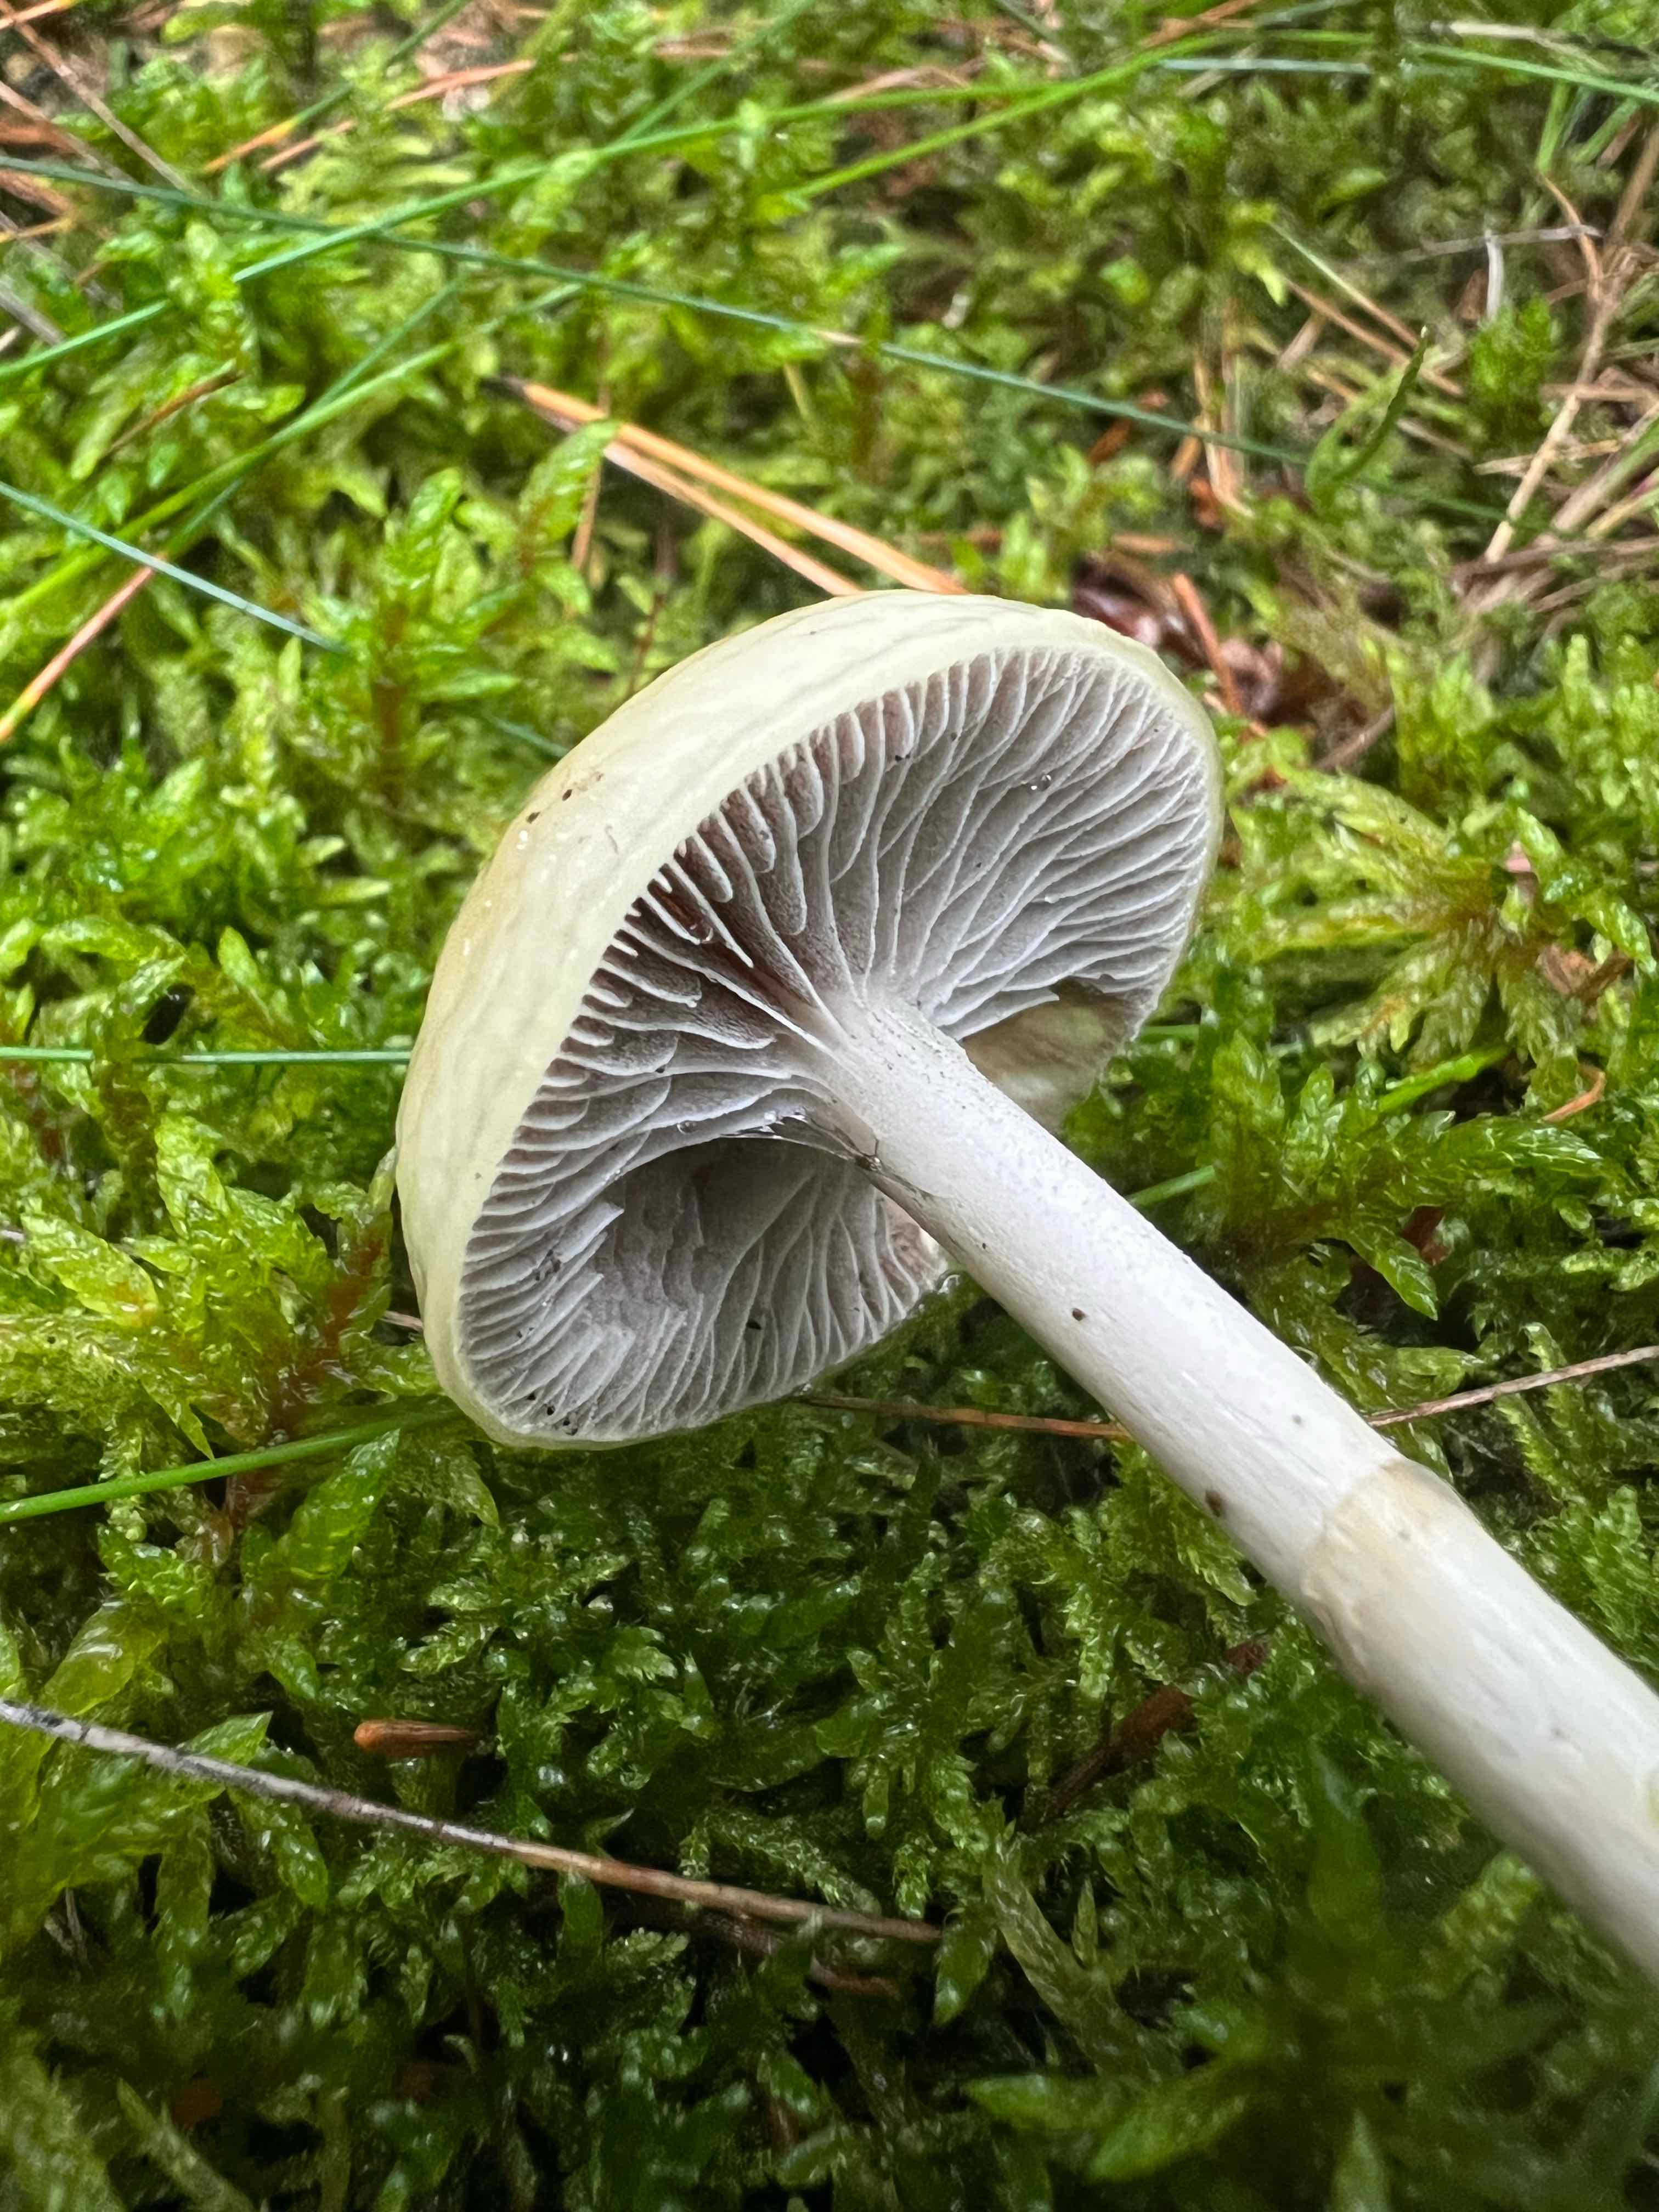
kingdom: Fungi
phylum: Basidiomycota
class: Agaricomycetes
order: Agaricales
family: Strophariaceae
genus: Protostropharia
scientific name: Protostropharia semiglobata
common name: halvkugleformet bredblad
